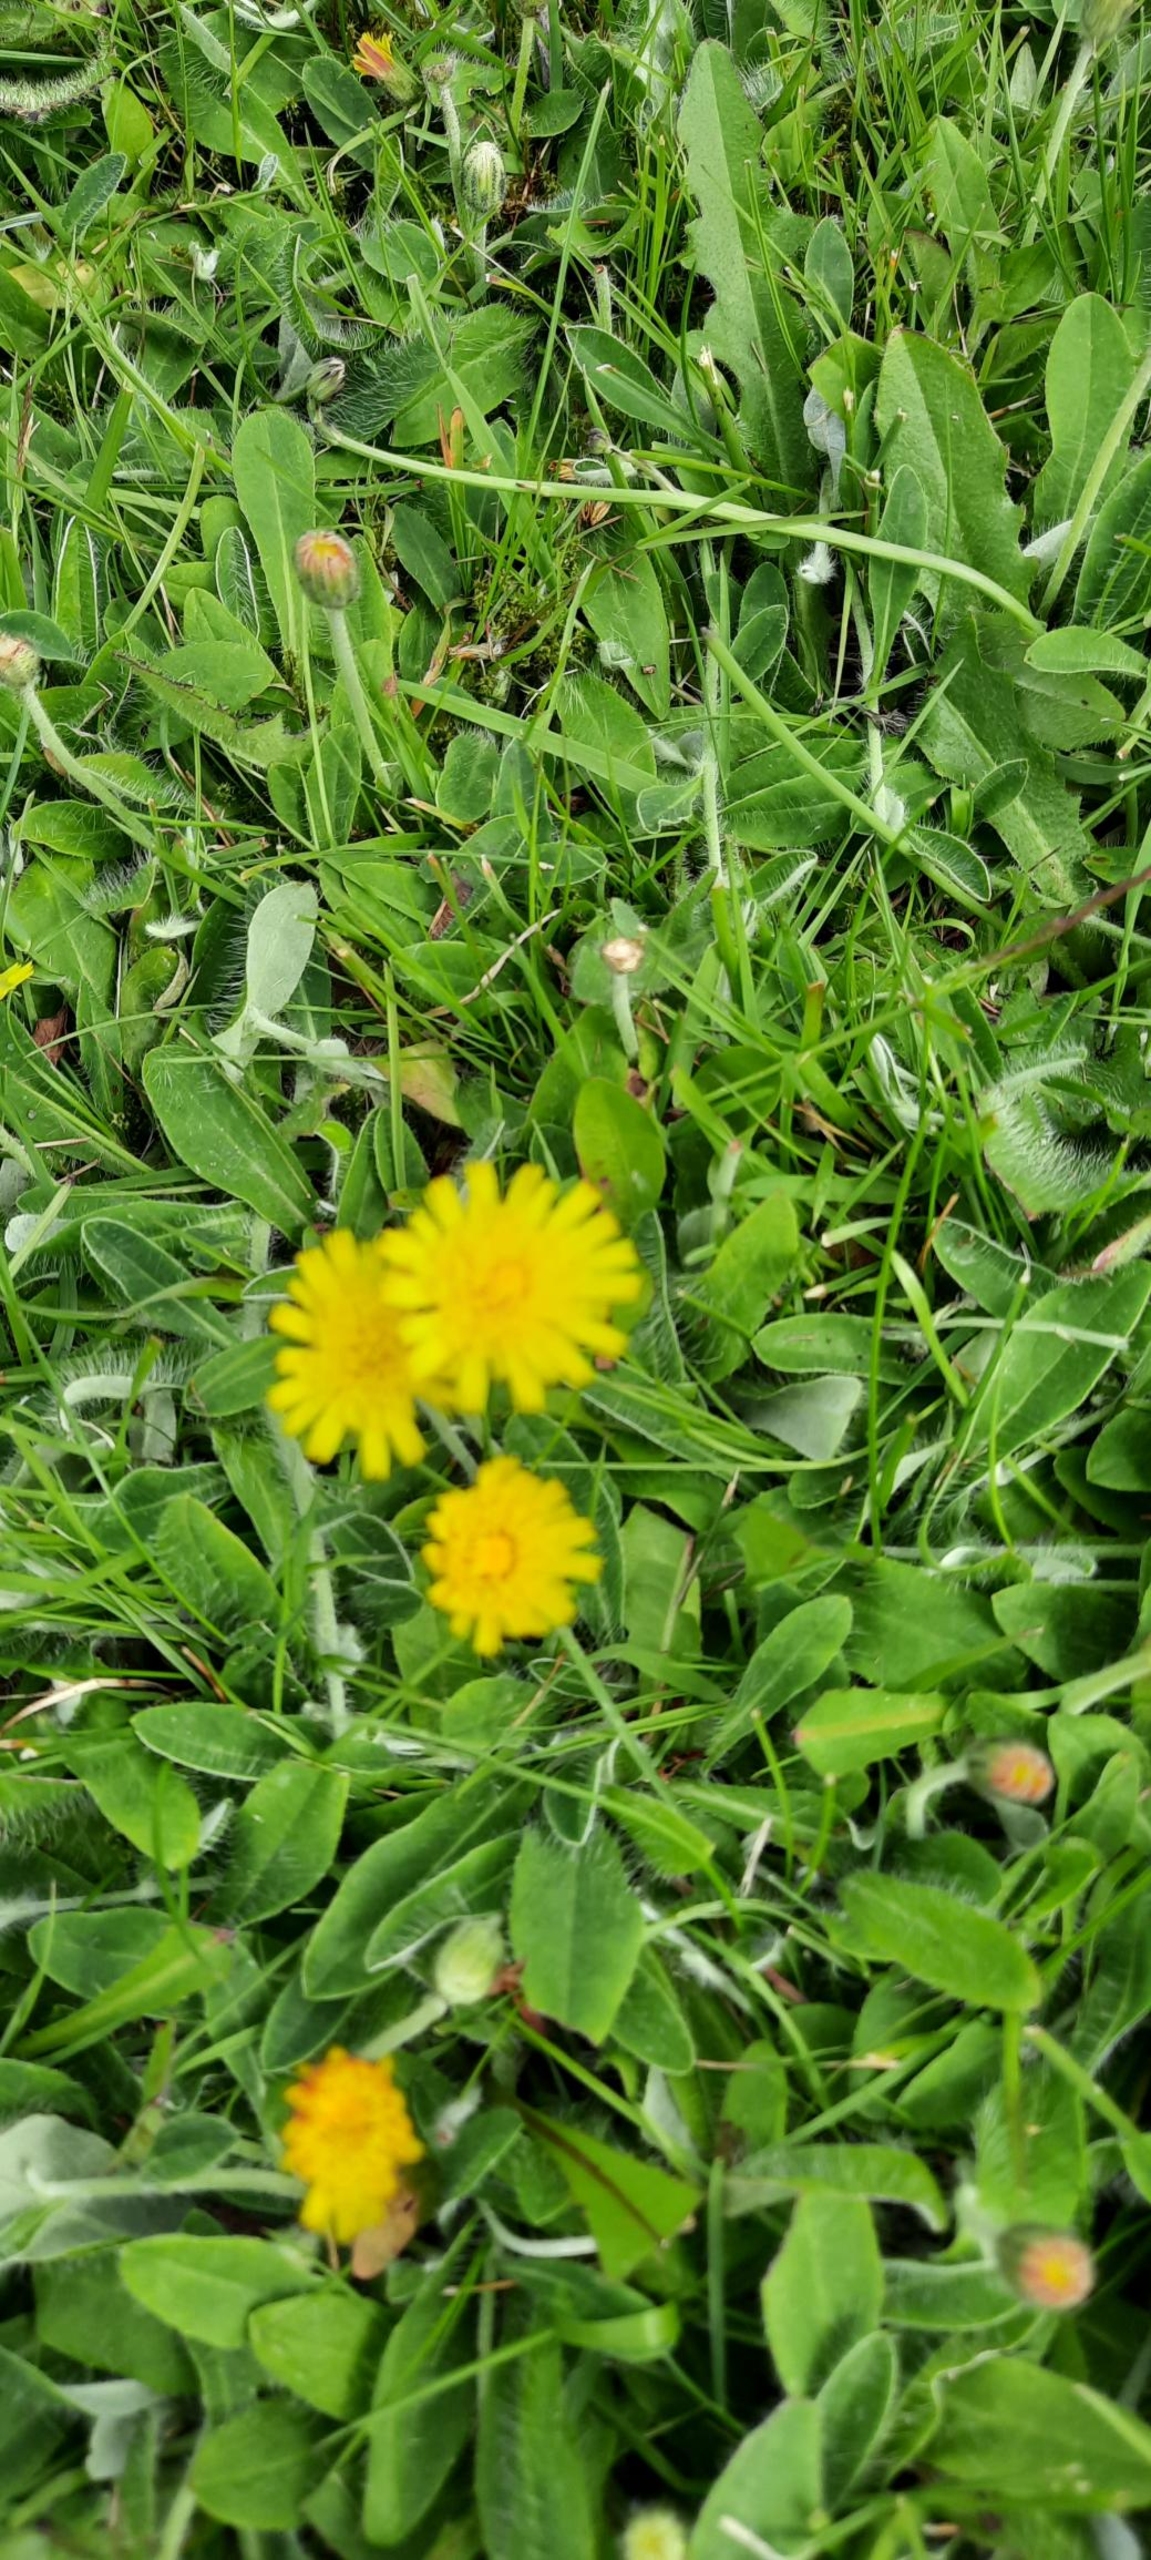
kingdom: Plantae
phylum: Tracheophyta
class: Magnoliopsida
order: Asterales
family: Asteraceae
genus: Pilosella
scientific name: Pilosella officinarum
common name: Håret høgeurt
